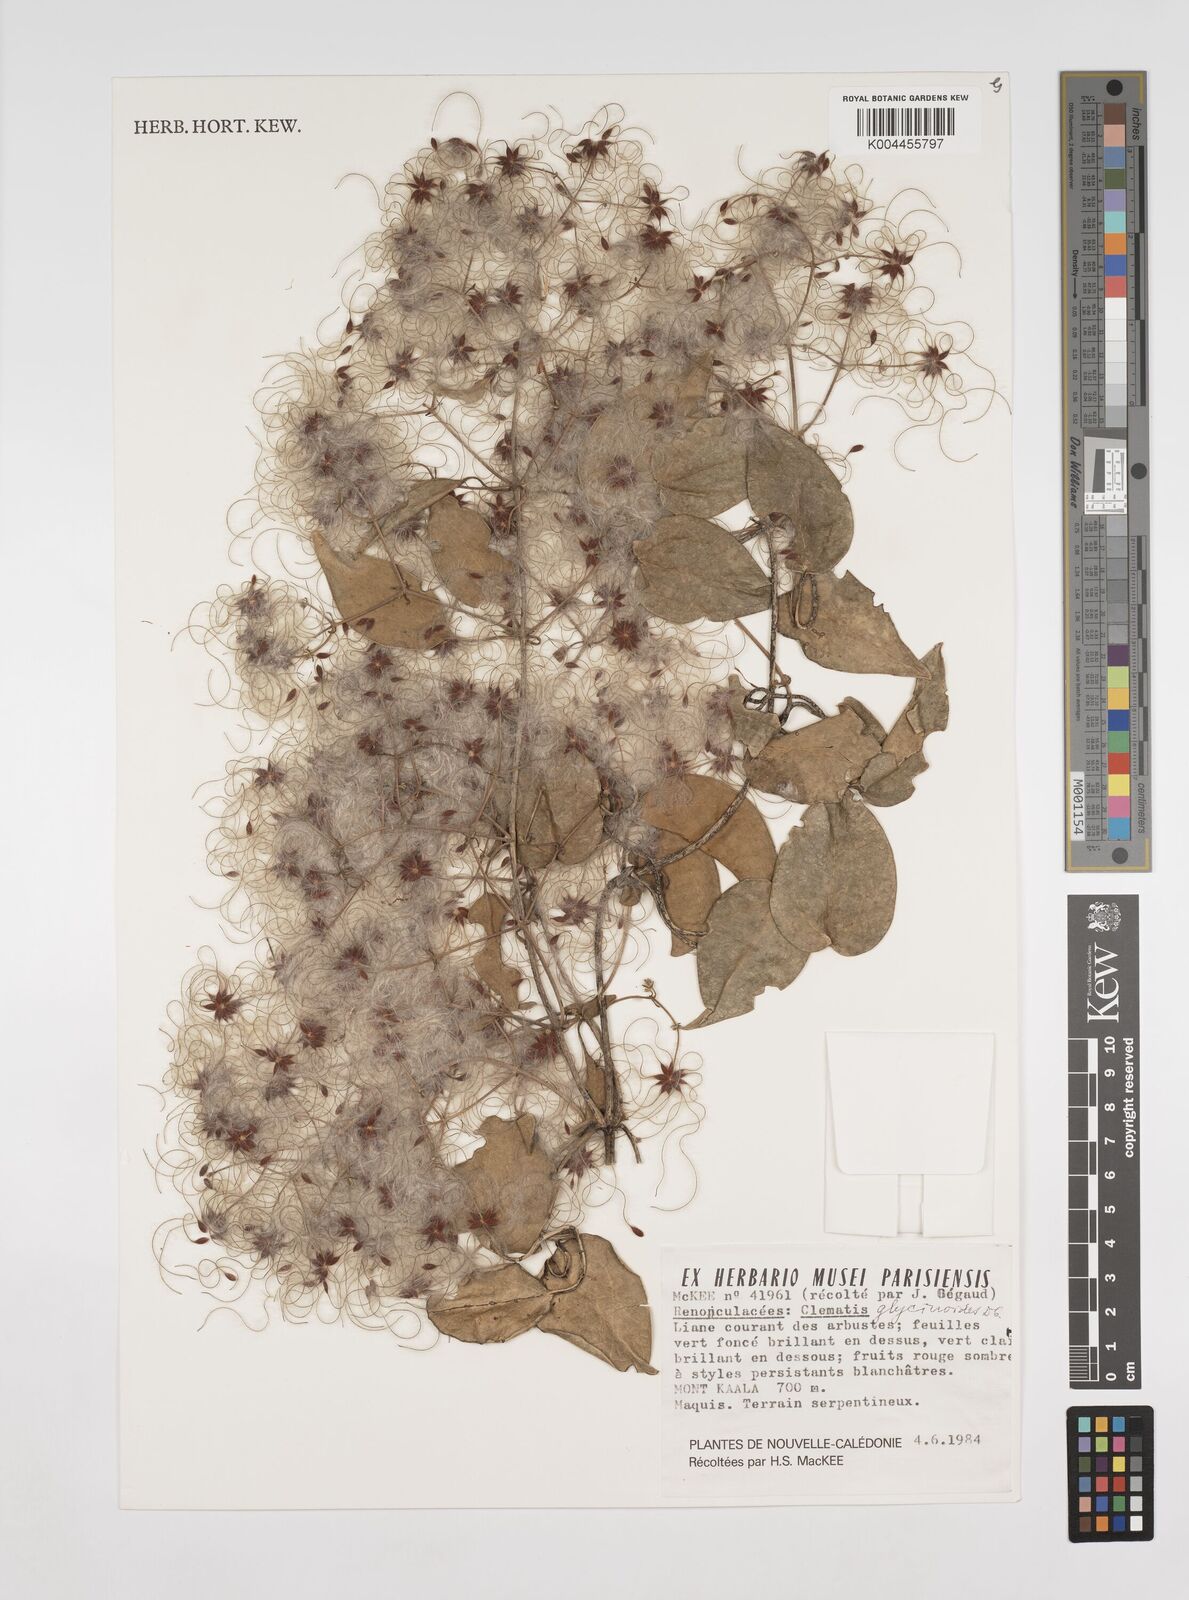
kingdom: Plantae
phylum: Tracheophyta
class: Magnoliopsida
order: Ranunculales
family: Ranunculaceae
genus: Clematis
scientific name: Clematis glycinoides
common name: Forest clematis
